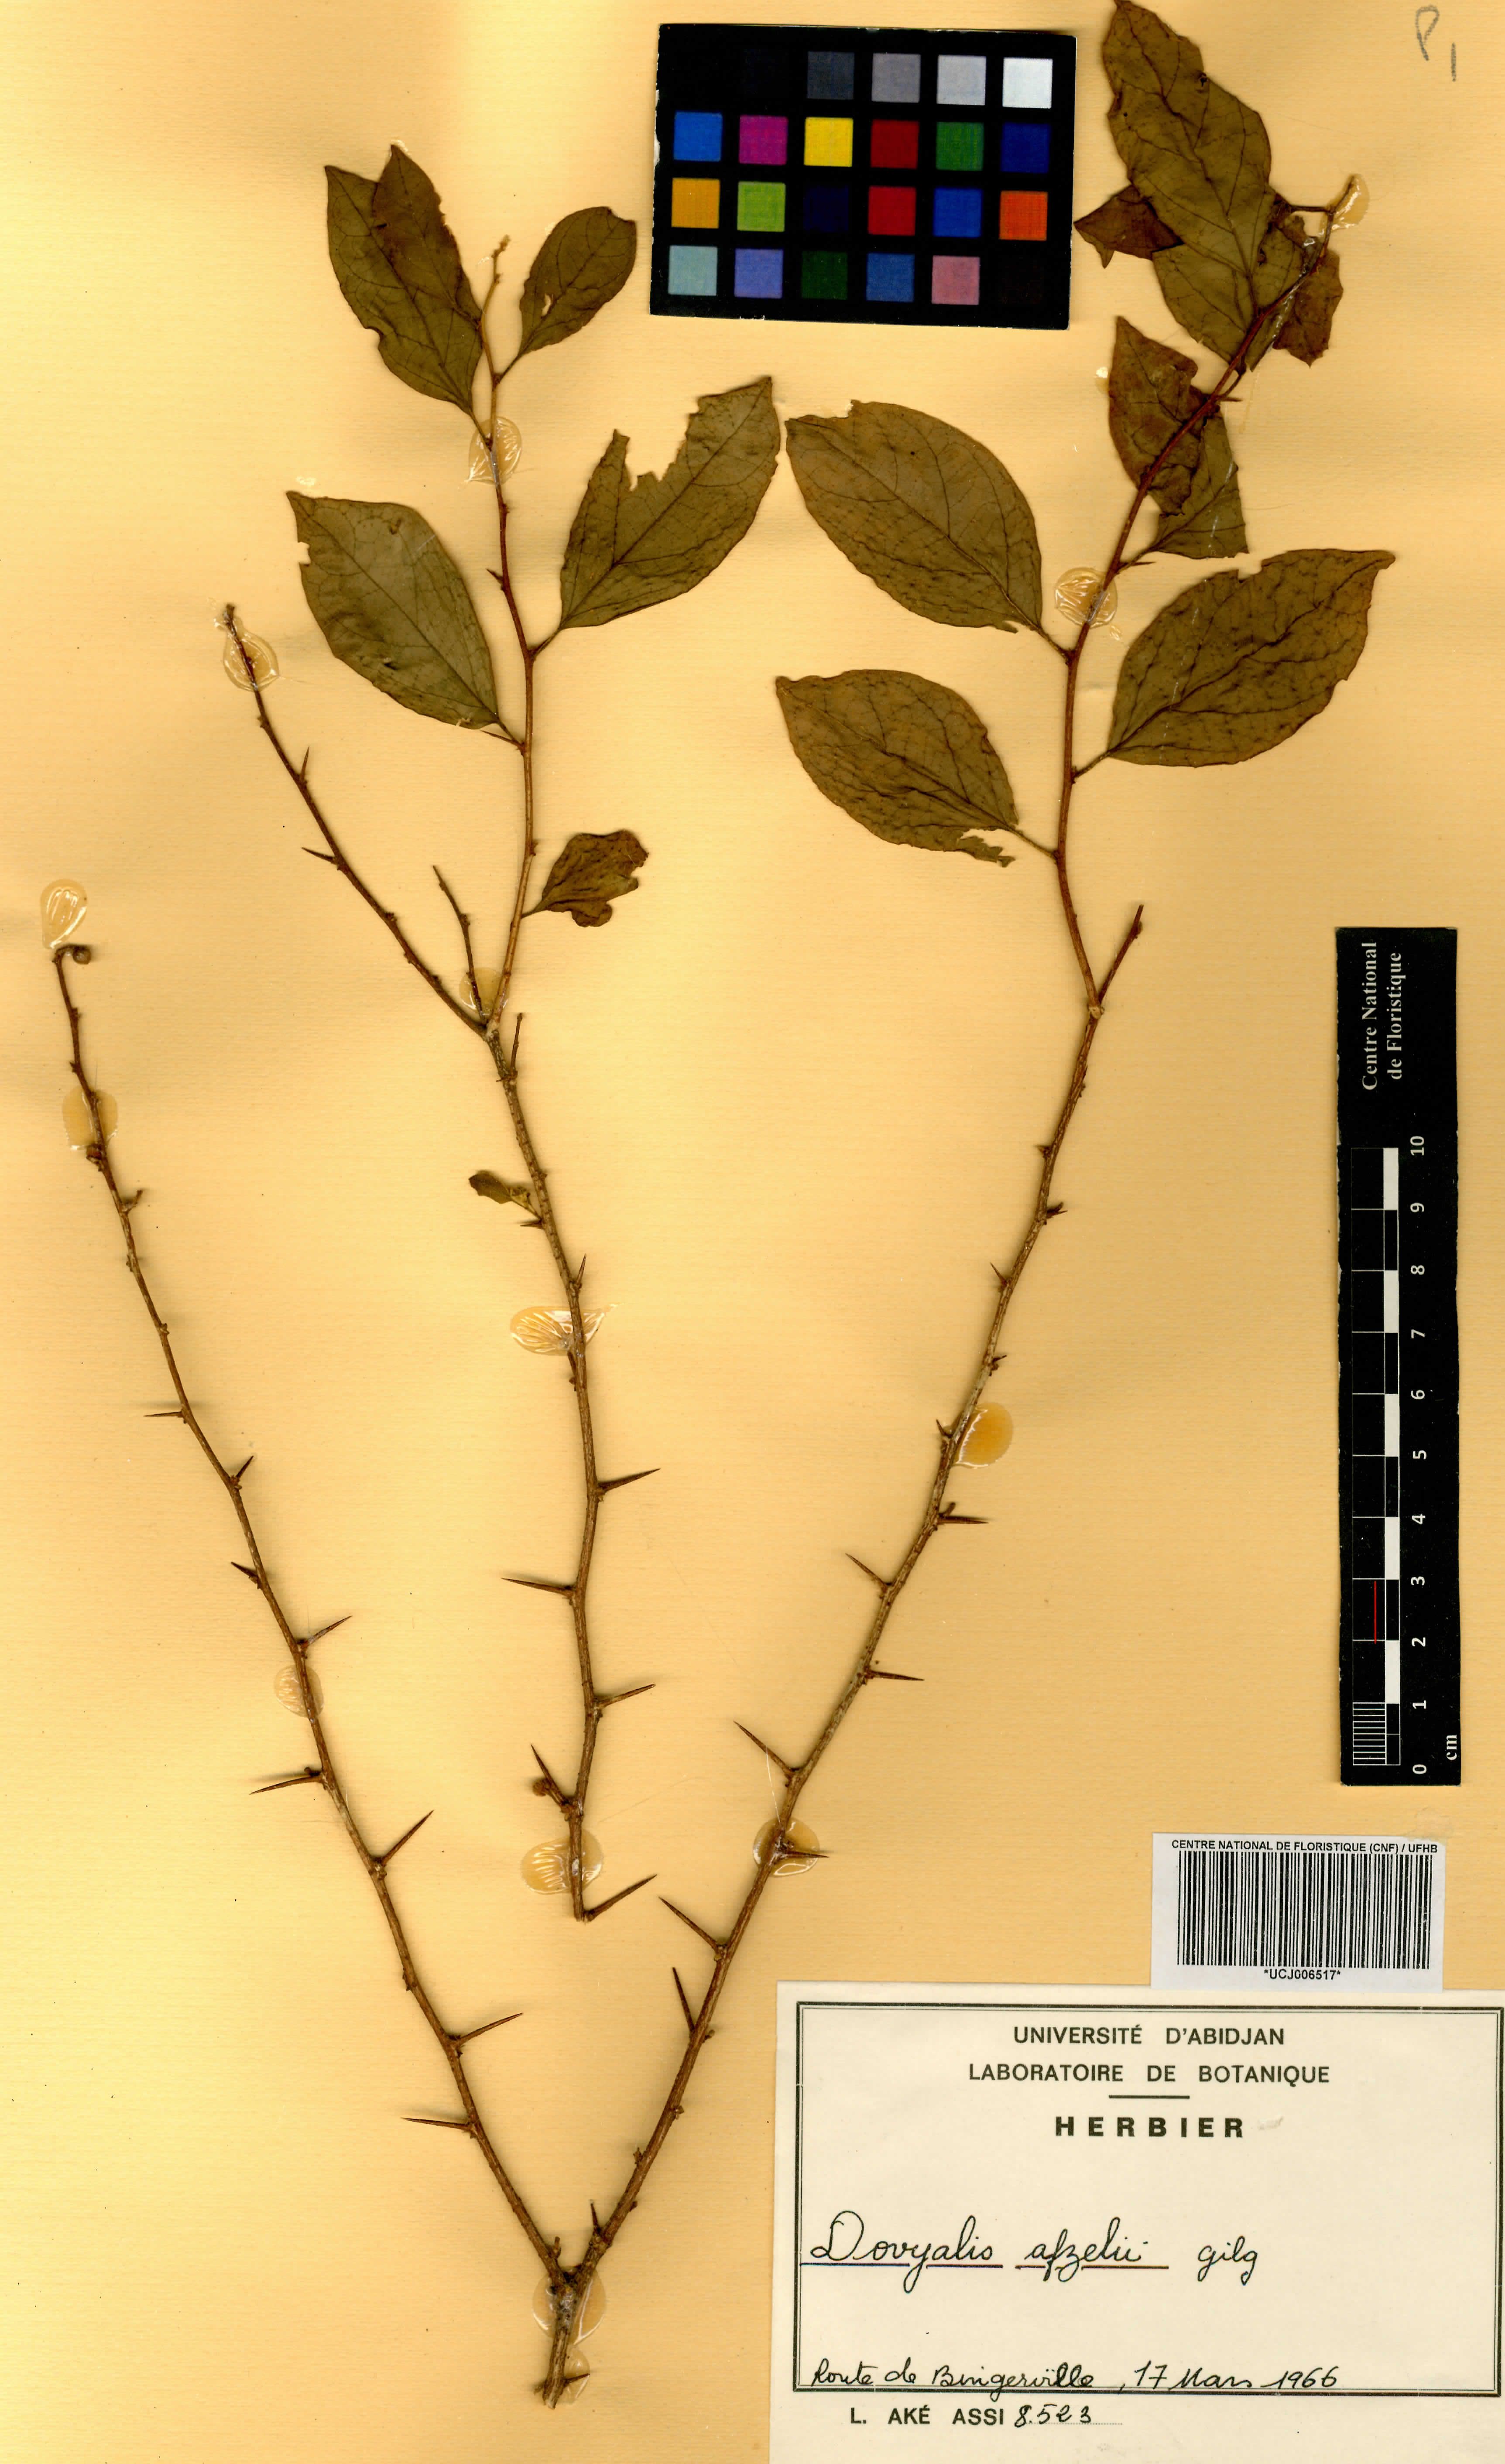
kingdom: Plantae
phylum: Tracheophyta
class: Magnoliopsida
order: Malpighiales
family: Salicaceae
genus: Dovyalis
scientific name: Dovyalis zenkeri
